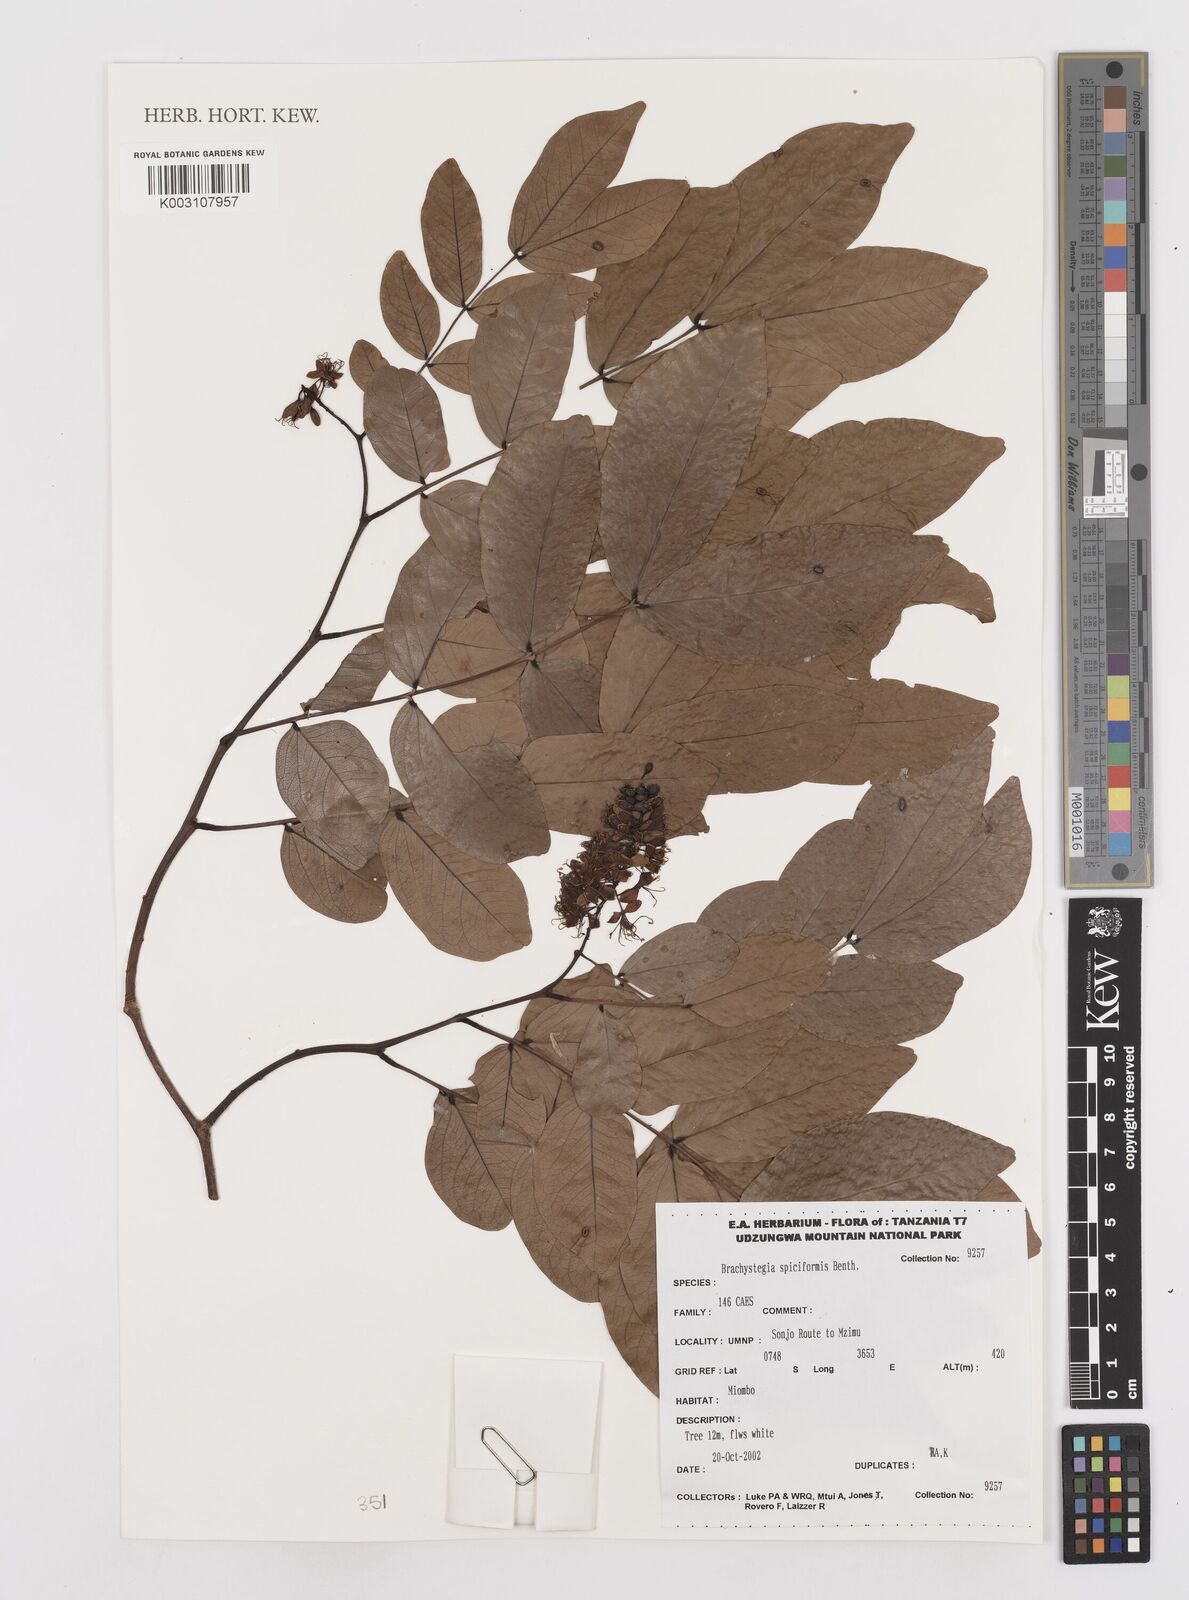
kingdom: Plantae
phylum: Tracheophyta
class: Magnoliopsida
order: Fabales
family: Fabaceae
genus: Brachystegia
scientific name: Brachystegia spiciformis
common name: Zebrawood
